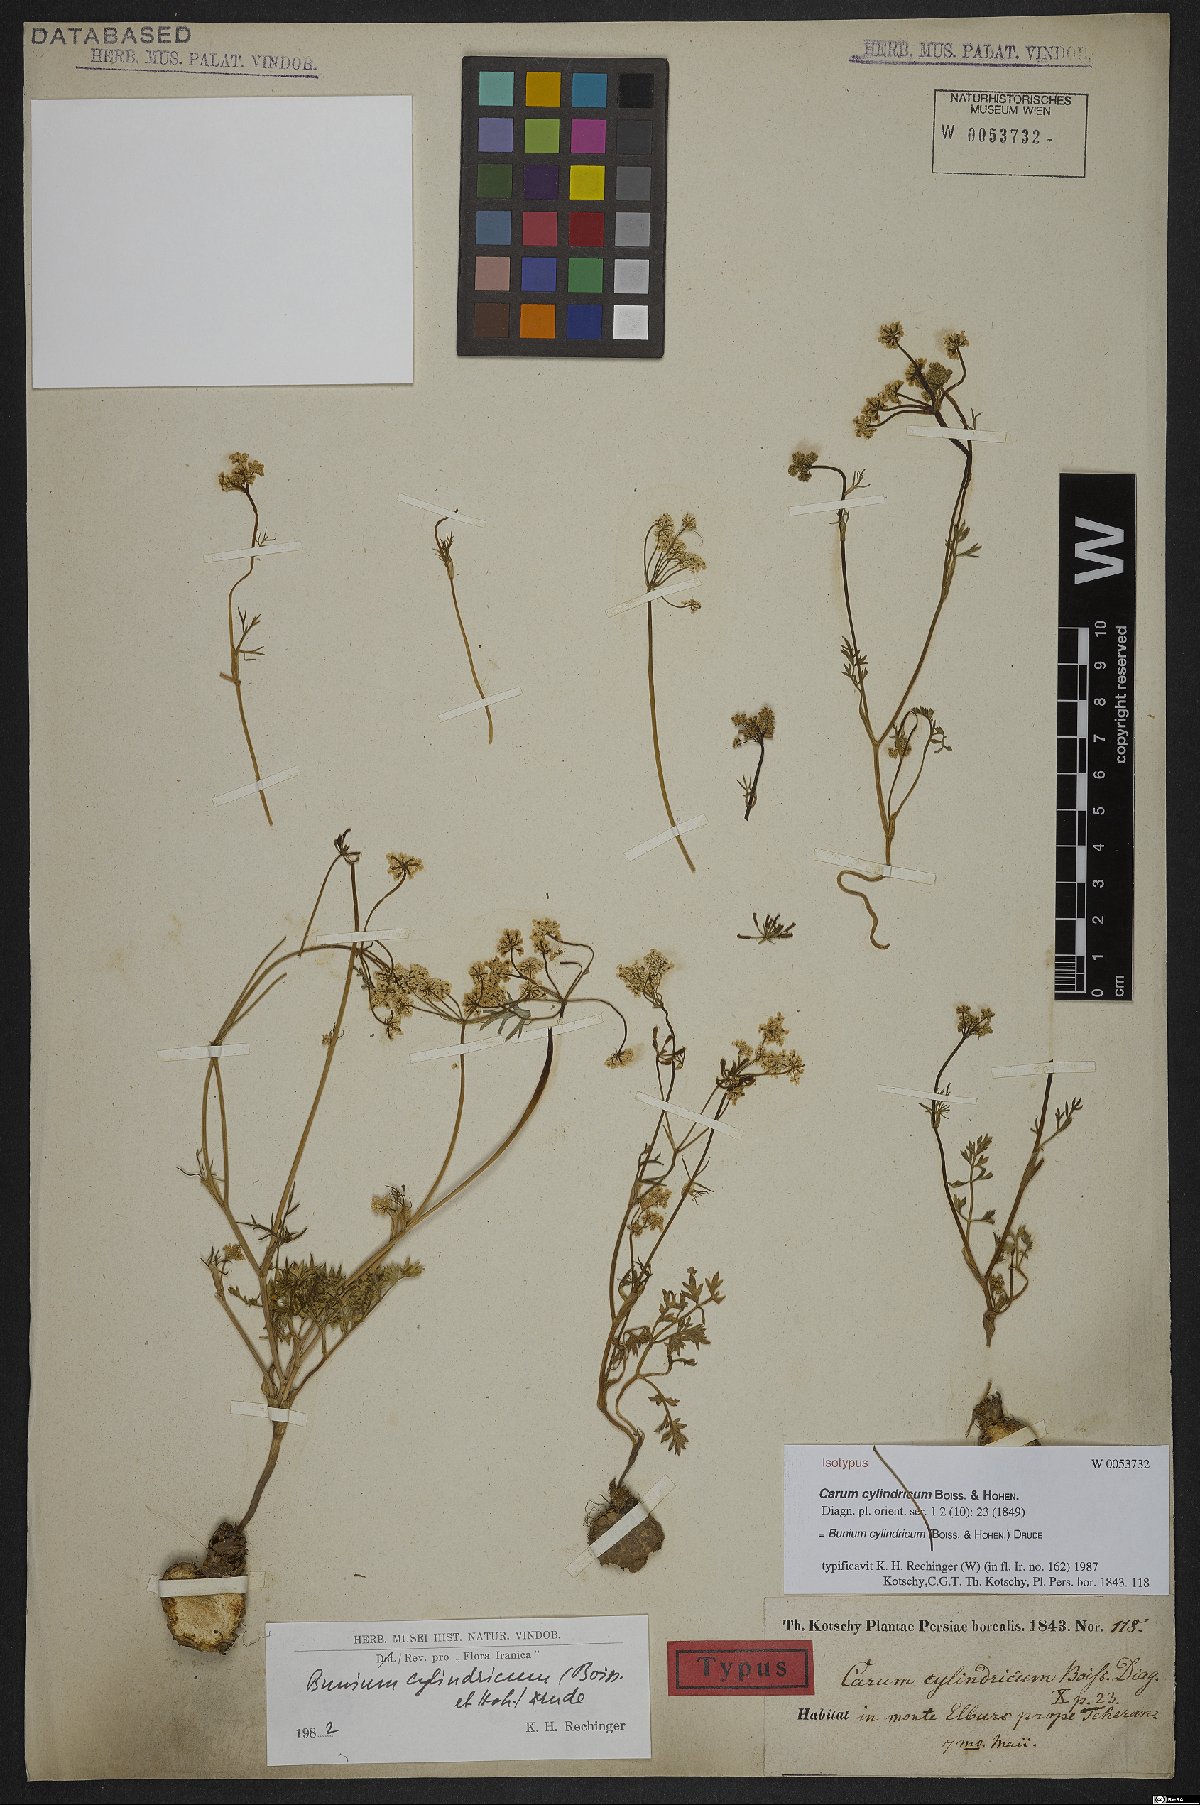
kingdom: Plantae
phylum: Tracheophyta
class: Magnoliopsida
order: Apiales
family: Apiaceae
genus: Elwendia
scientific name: Elwendia cylindrica
